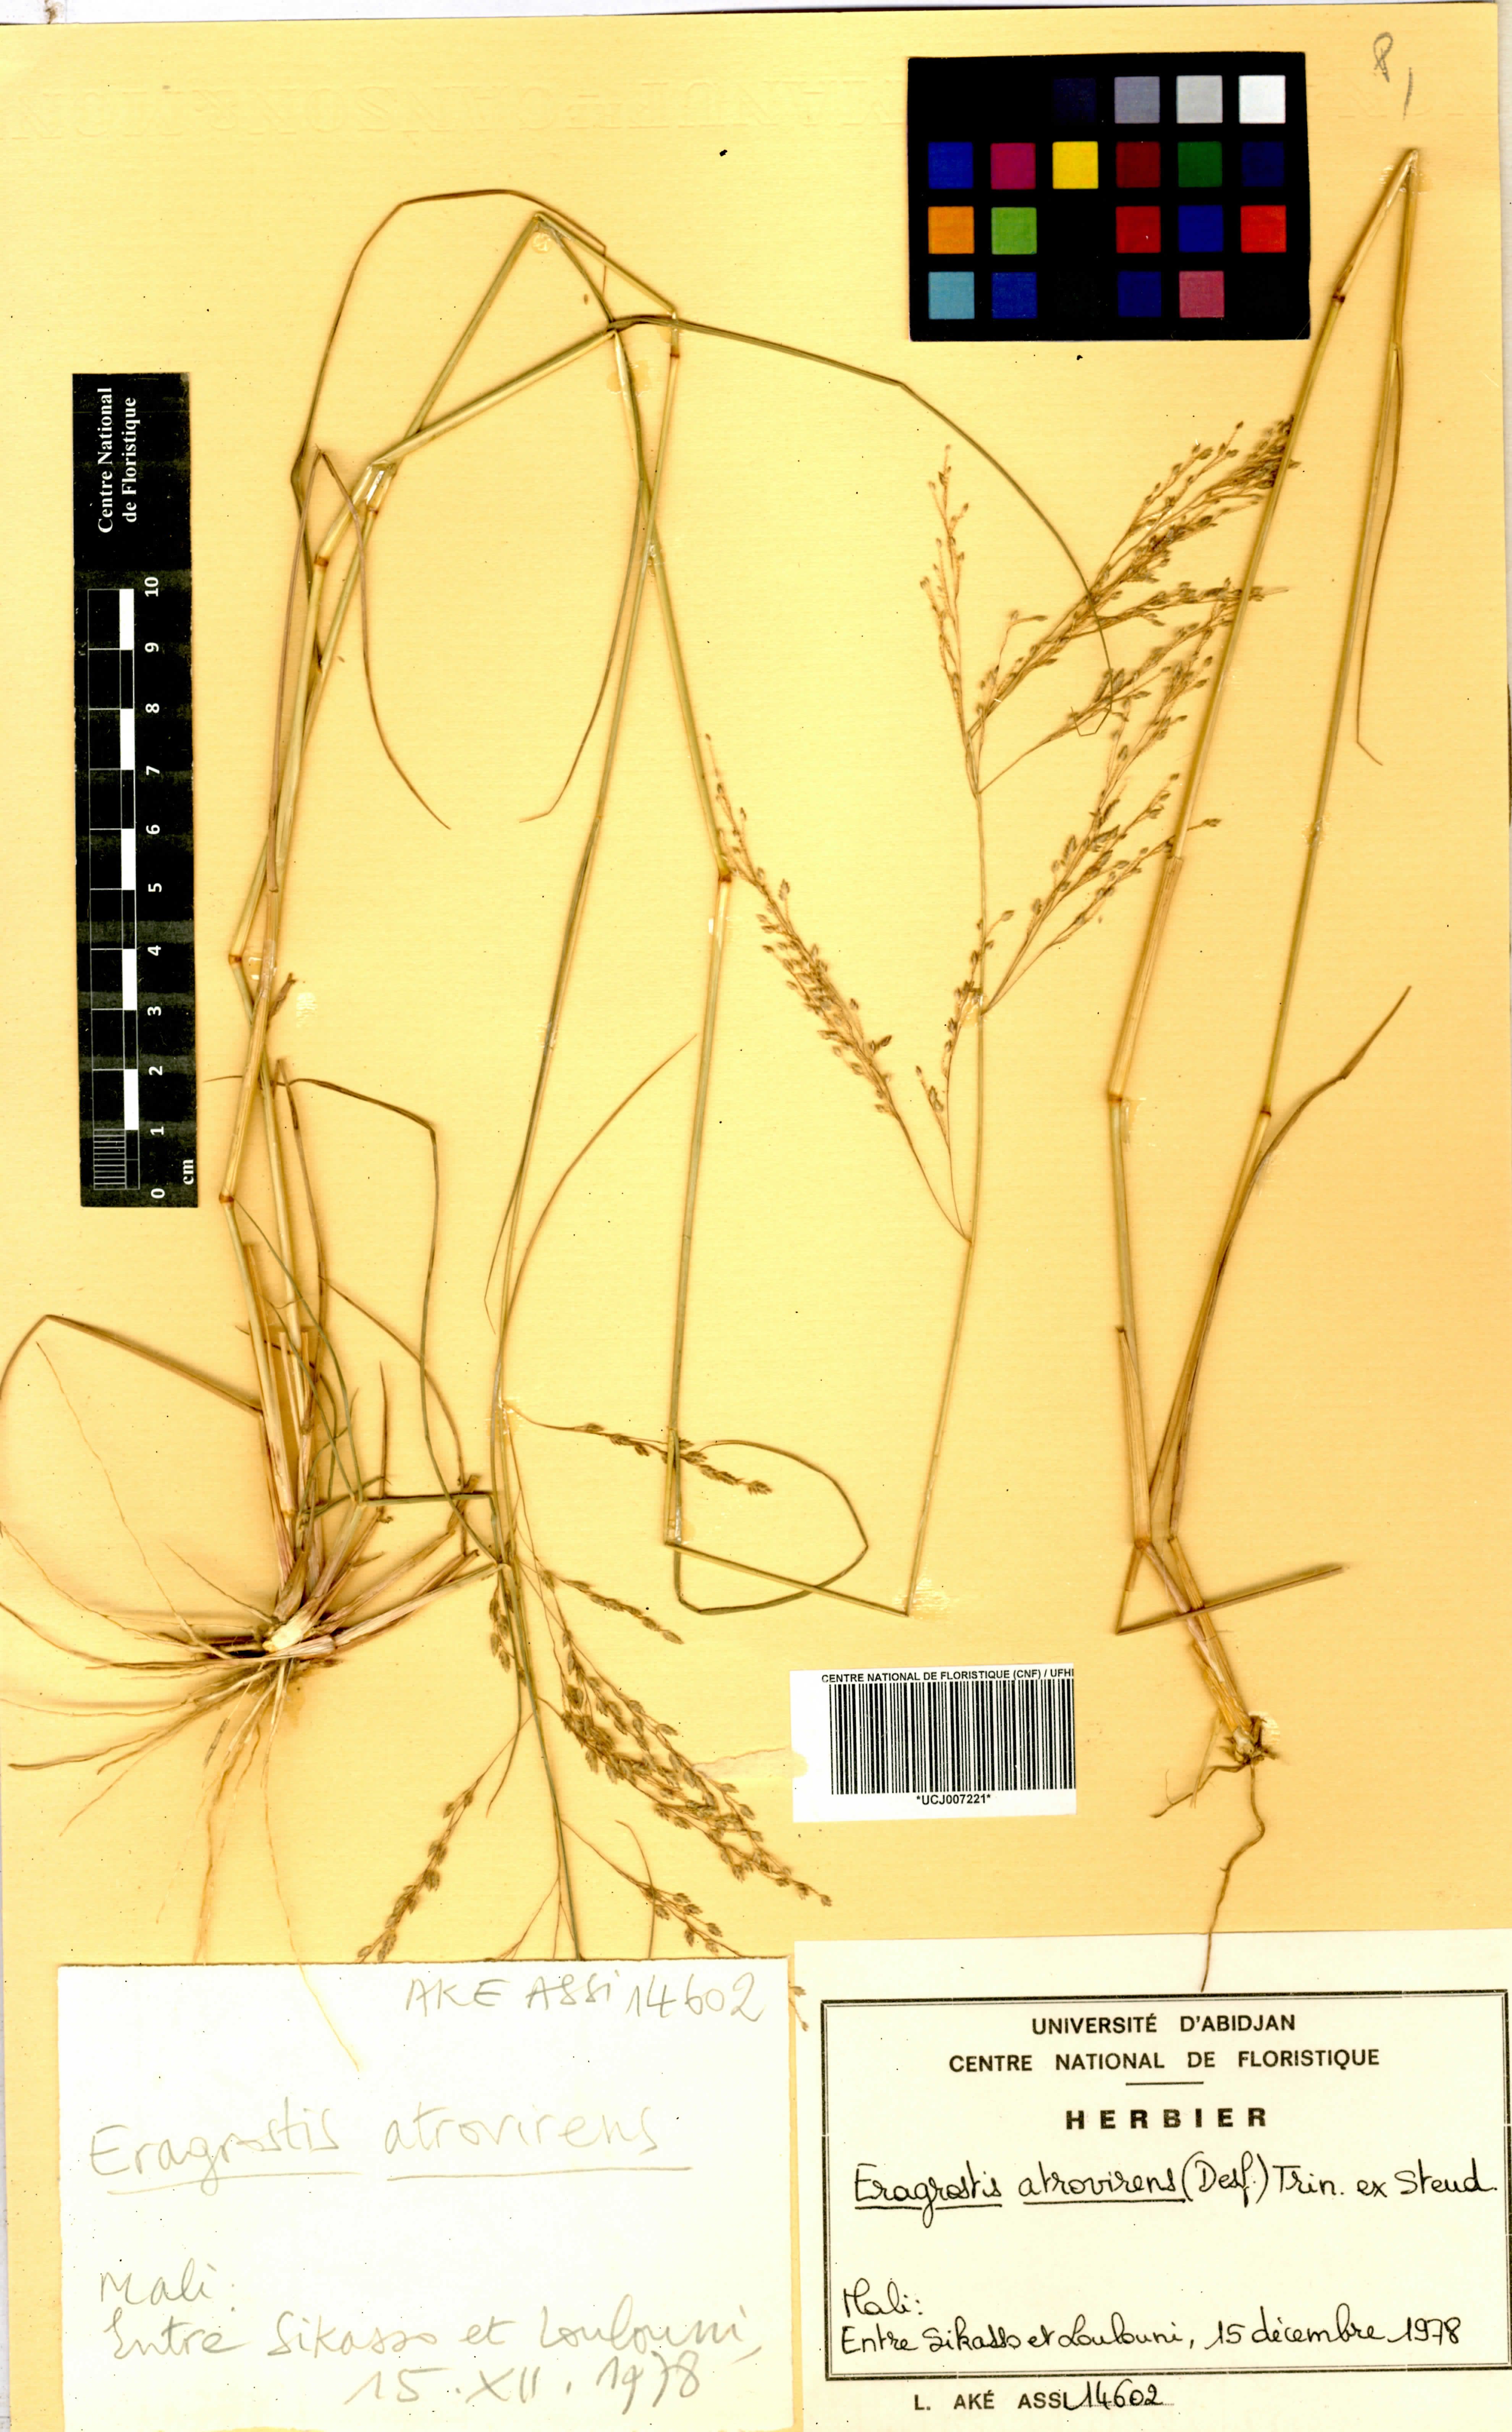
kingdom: Plantae
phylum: Tracheophyta
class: Liliopsida
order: Poales
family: Poaceae
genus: Eragrostis
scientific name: Eragrostis atrovirens
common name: Thalia lovegrass
